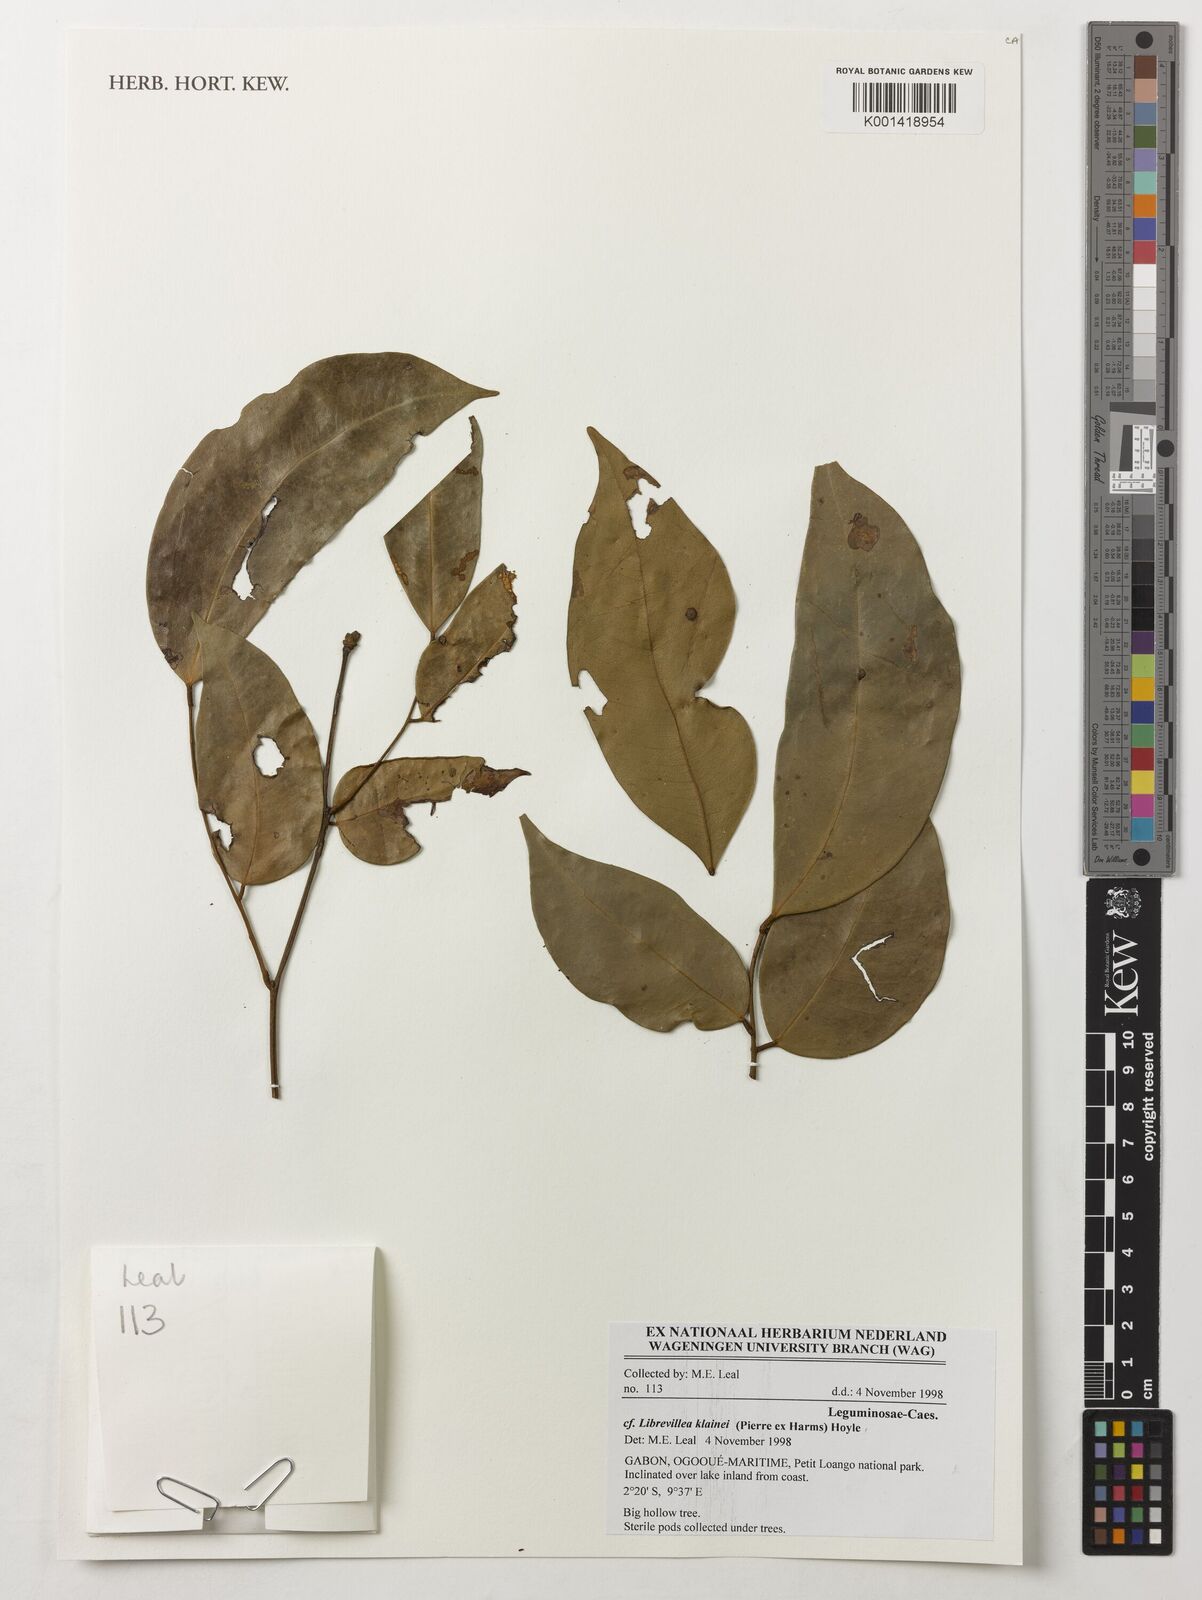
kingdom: Plantae
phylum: Tracheophyta
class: Magnoliopsida
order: Fabales
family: Fabaceae
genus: Librevillea
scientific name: Librevillea klainei
